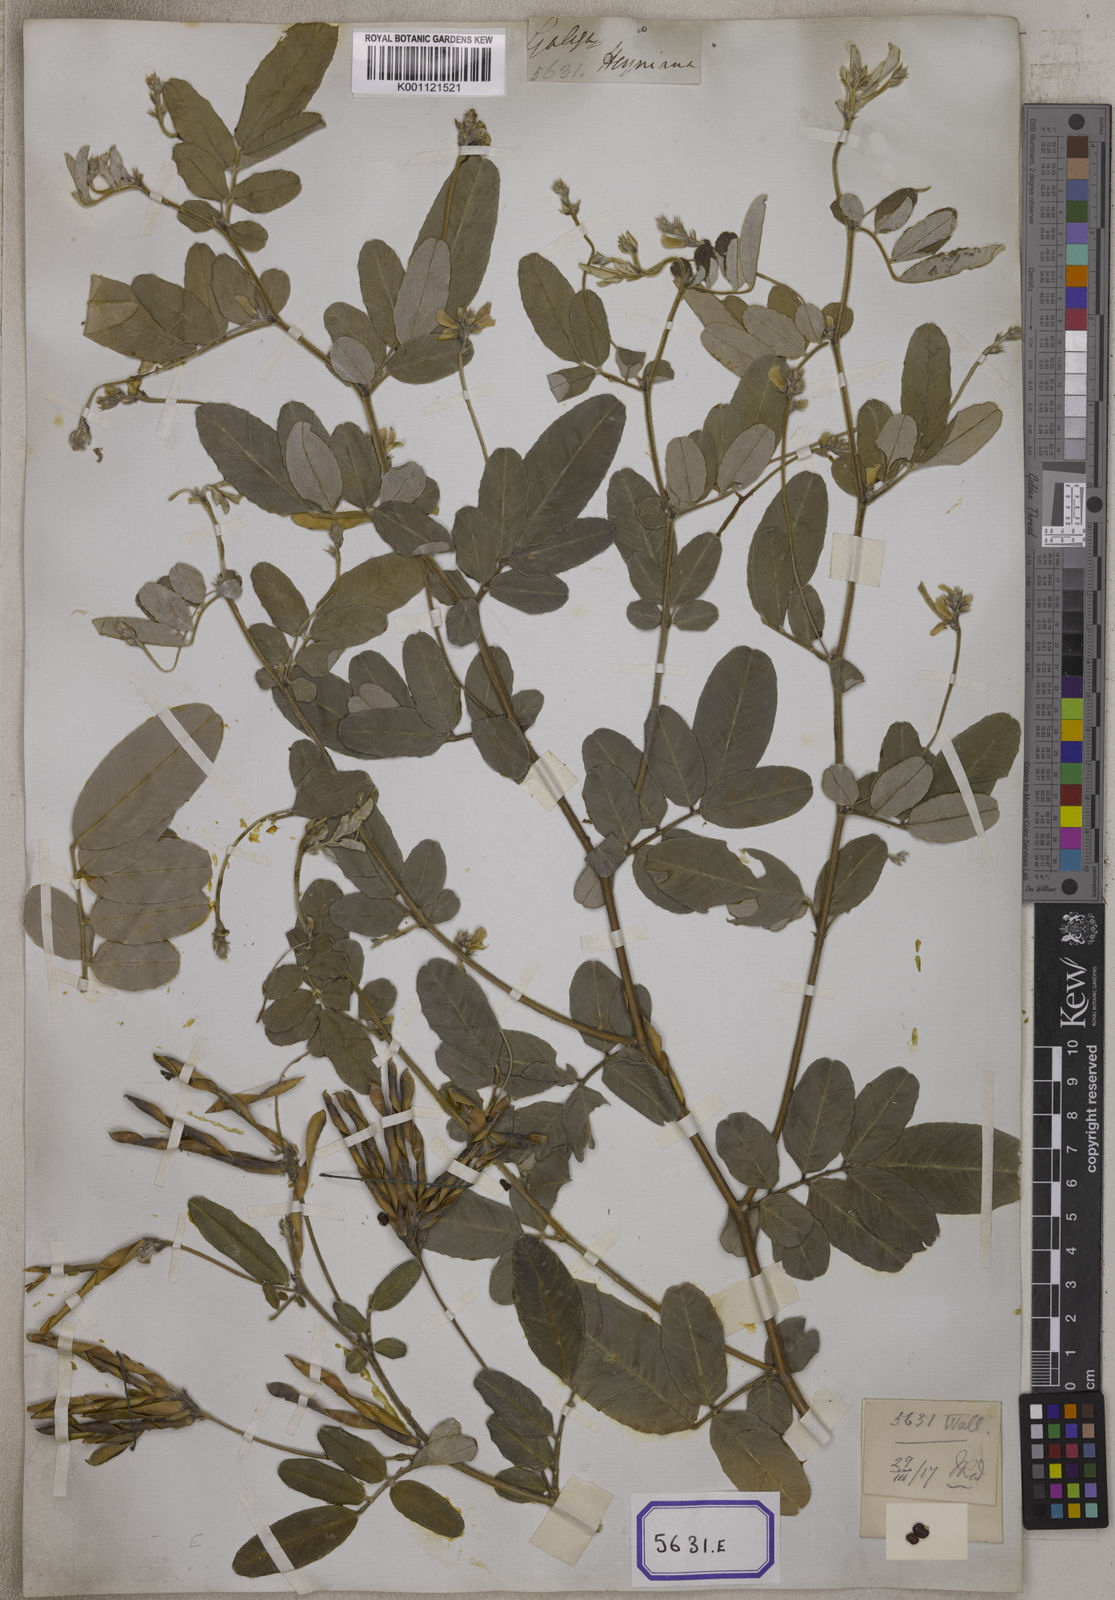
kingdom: Plantae
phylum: Tracheophyta
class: Magnoliopsida
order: Fabales
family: Fabaceae
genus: Tephrosia
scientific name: Tephrosia
